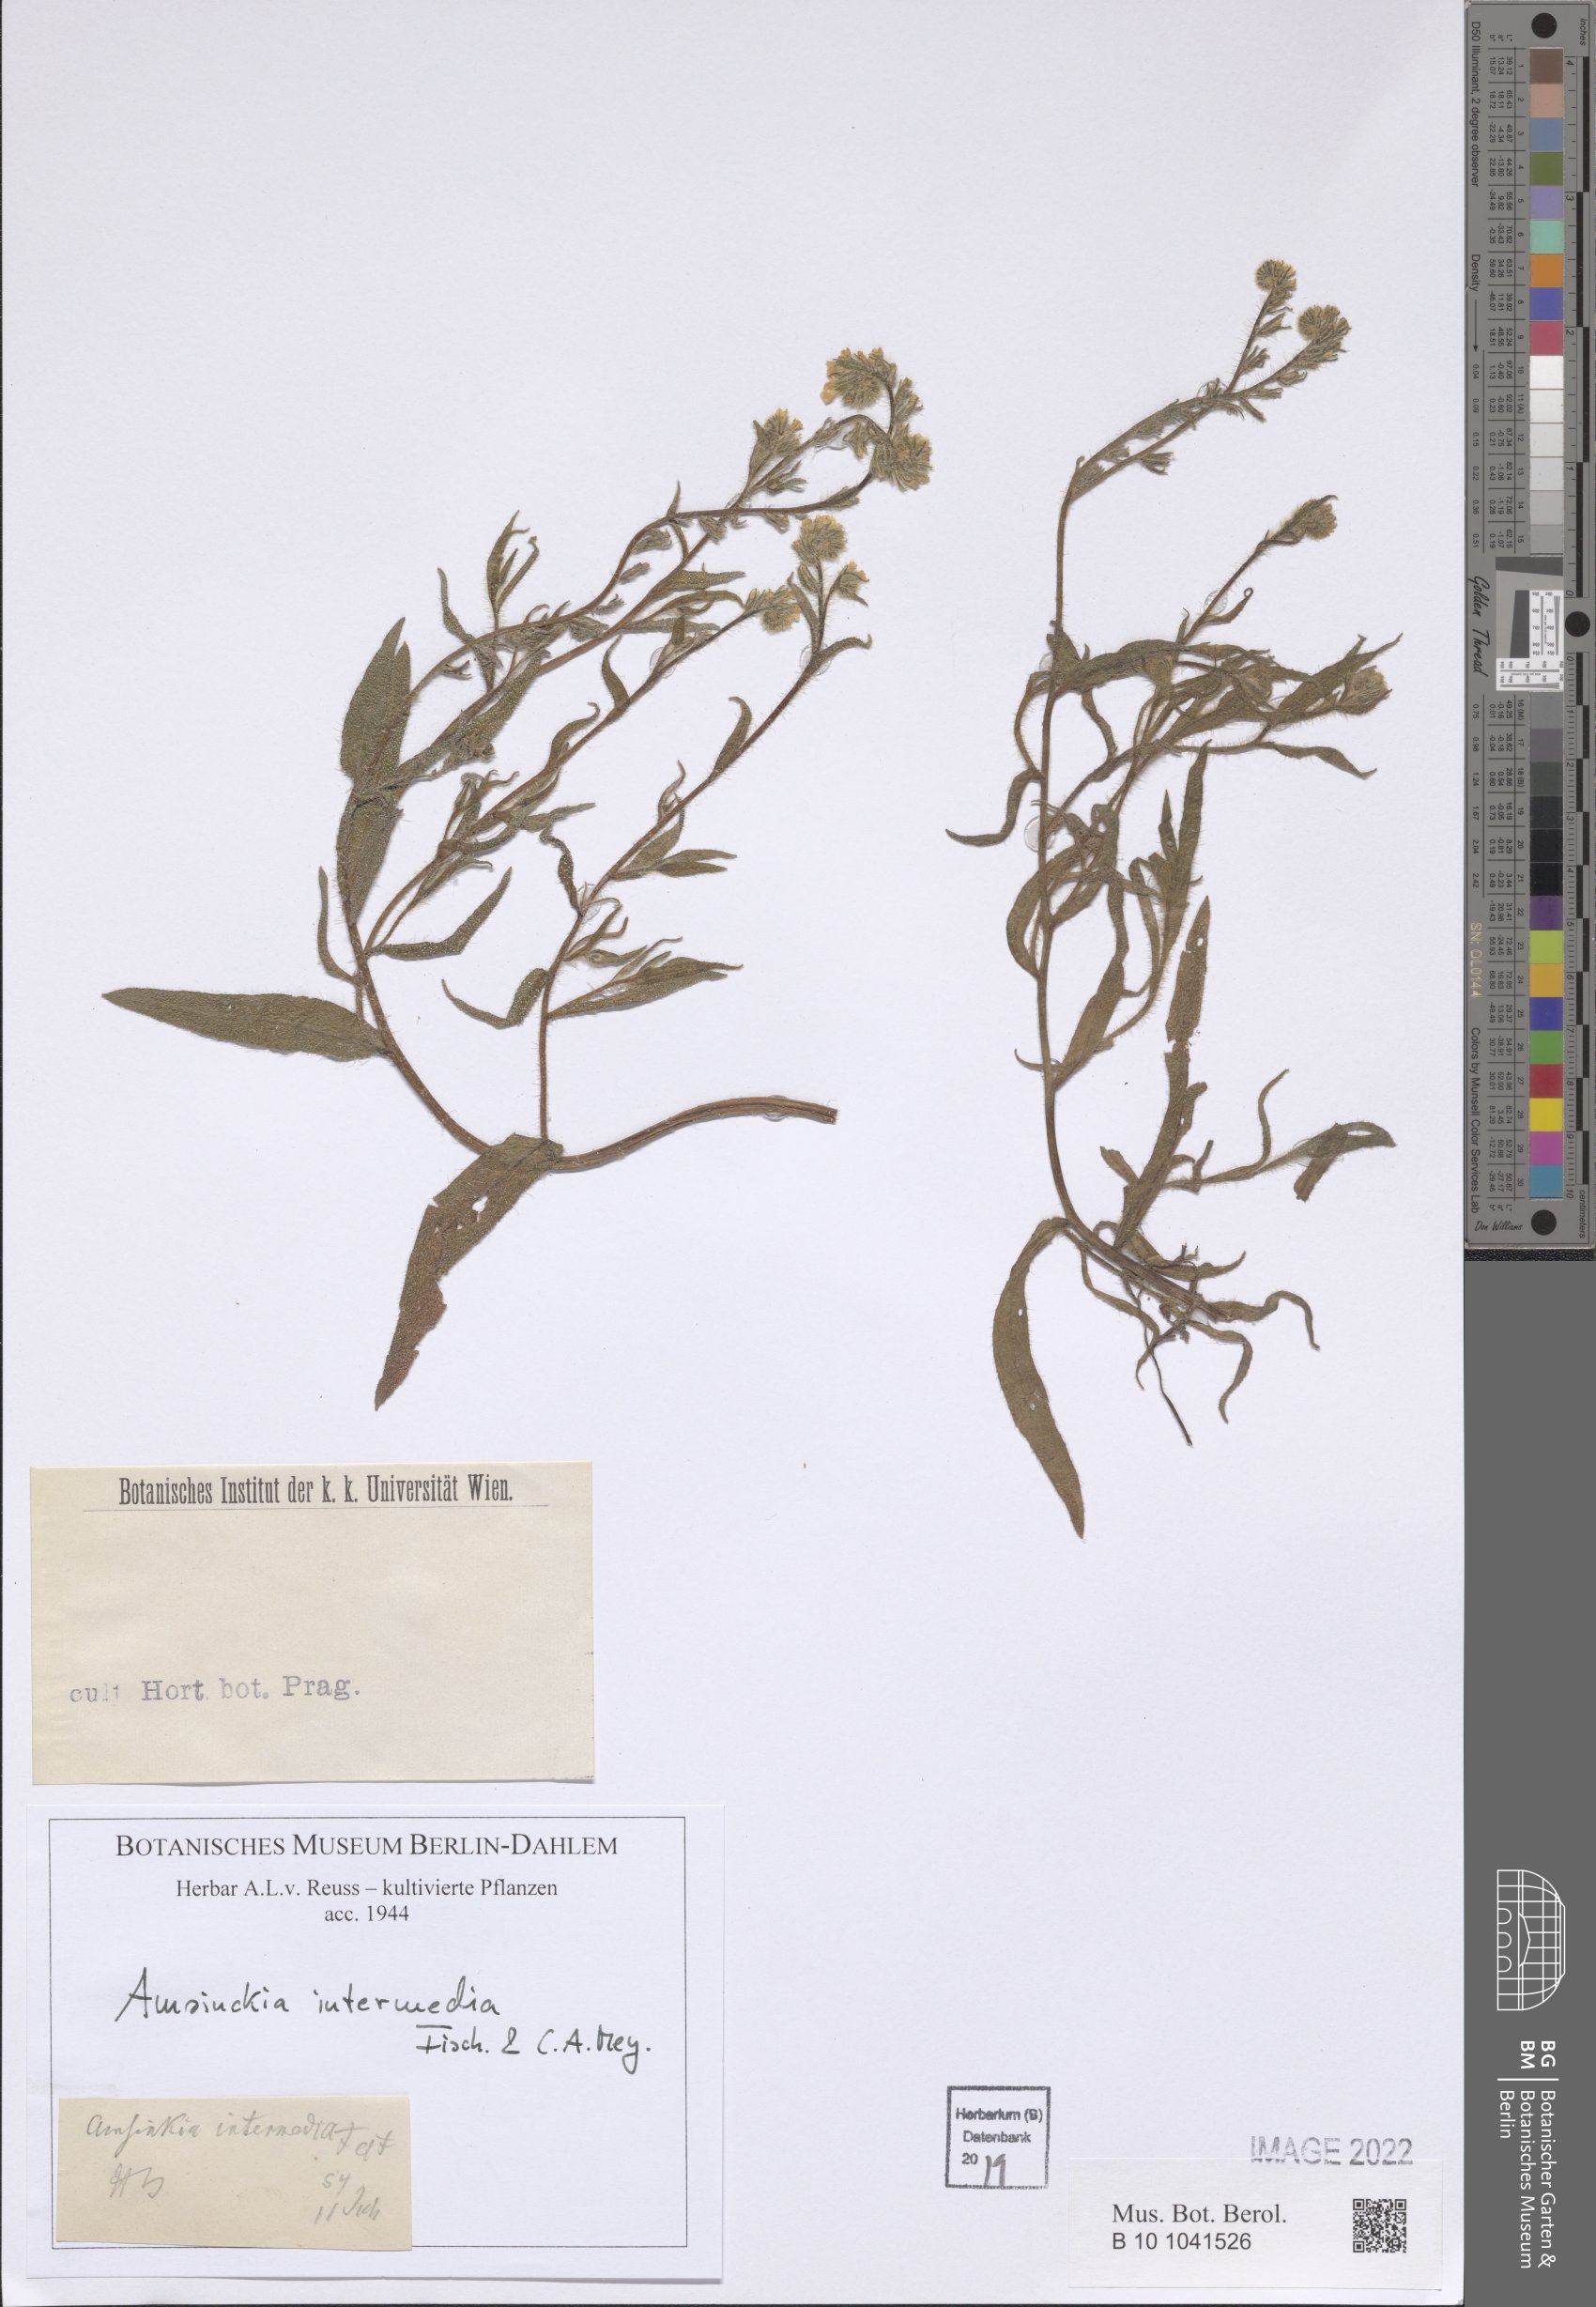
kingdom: Plantae
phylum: Tracheophyta
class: Magnoliopsida
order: Boraginales
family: Boraginaceae
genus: Amsinckia
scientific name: Amsinckia menziesii
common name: Menzies' fiddleneck
